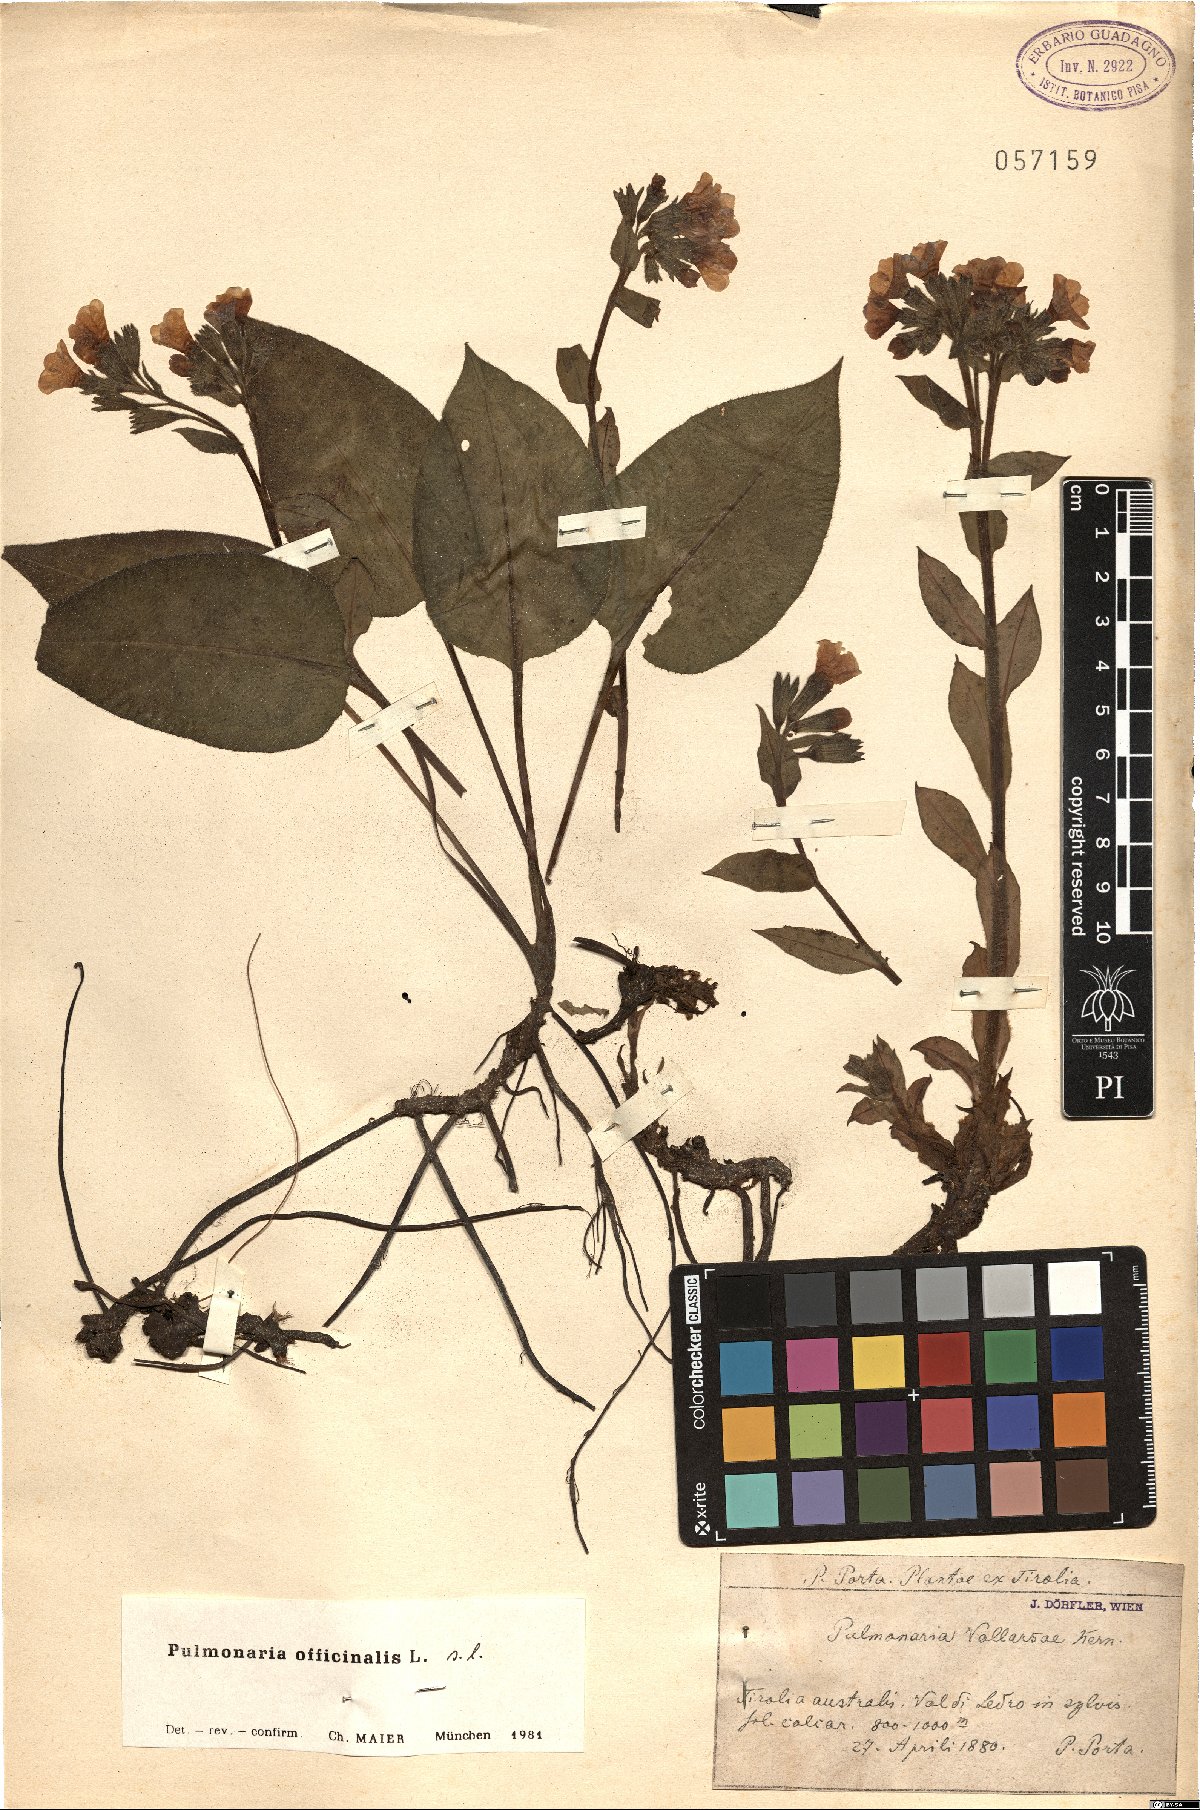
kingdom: Plantae
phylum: Tracheophyta
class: Magnoliopsida
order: Boraginales
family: Boraginaceae
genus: Pulmonaria
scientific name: Pulmonaria officinalis
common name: Lungwort
